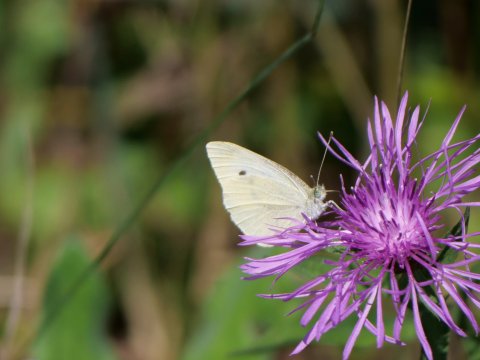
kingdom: Animalia
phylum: Arthropoda
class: Insecta
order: Lepidoptera
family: Pieridae
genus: Pieris
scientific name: Pieris rapae
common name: Cabbage White
